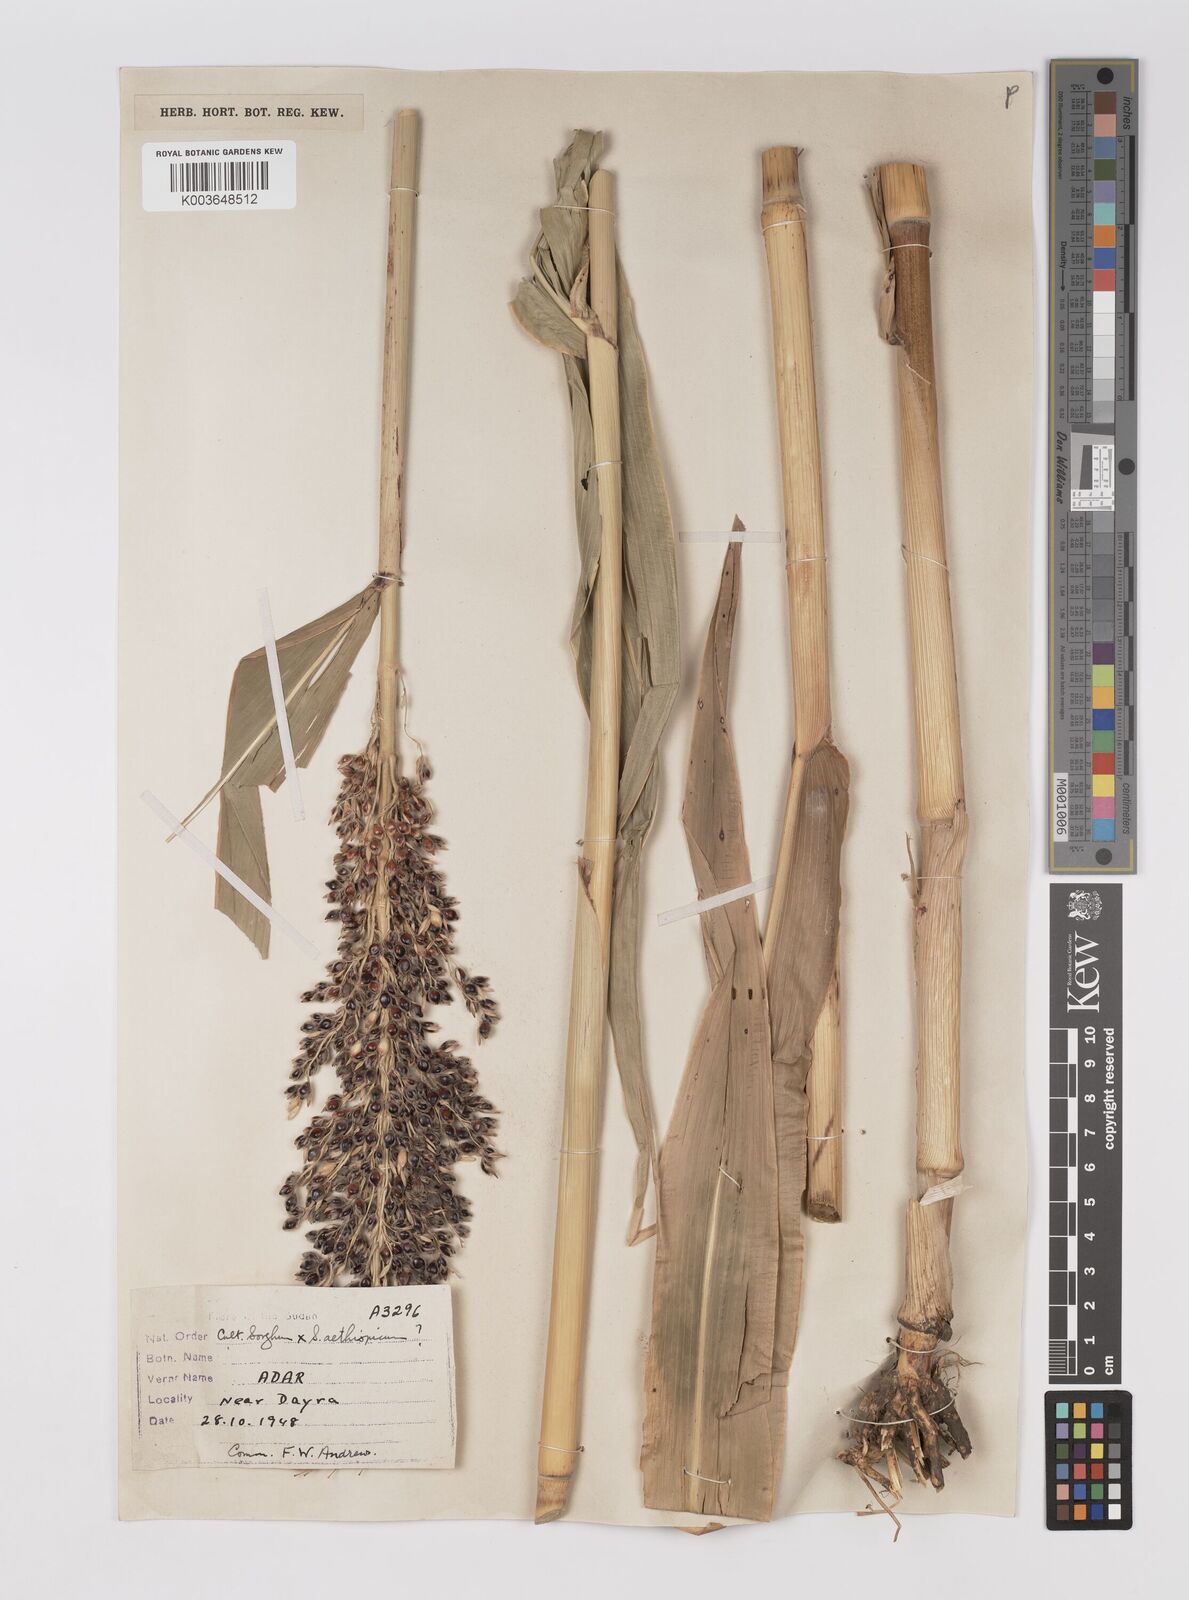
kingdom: Plantae
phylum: Tracheophyta
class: Liliopsida
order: Poales
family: Poaceae
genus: Sorghum
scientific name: Sorghum drummondii
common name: Sudangrass
